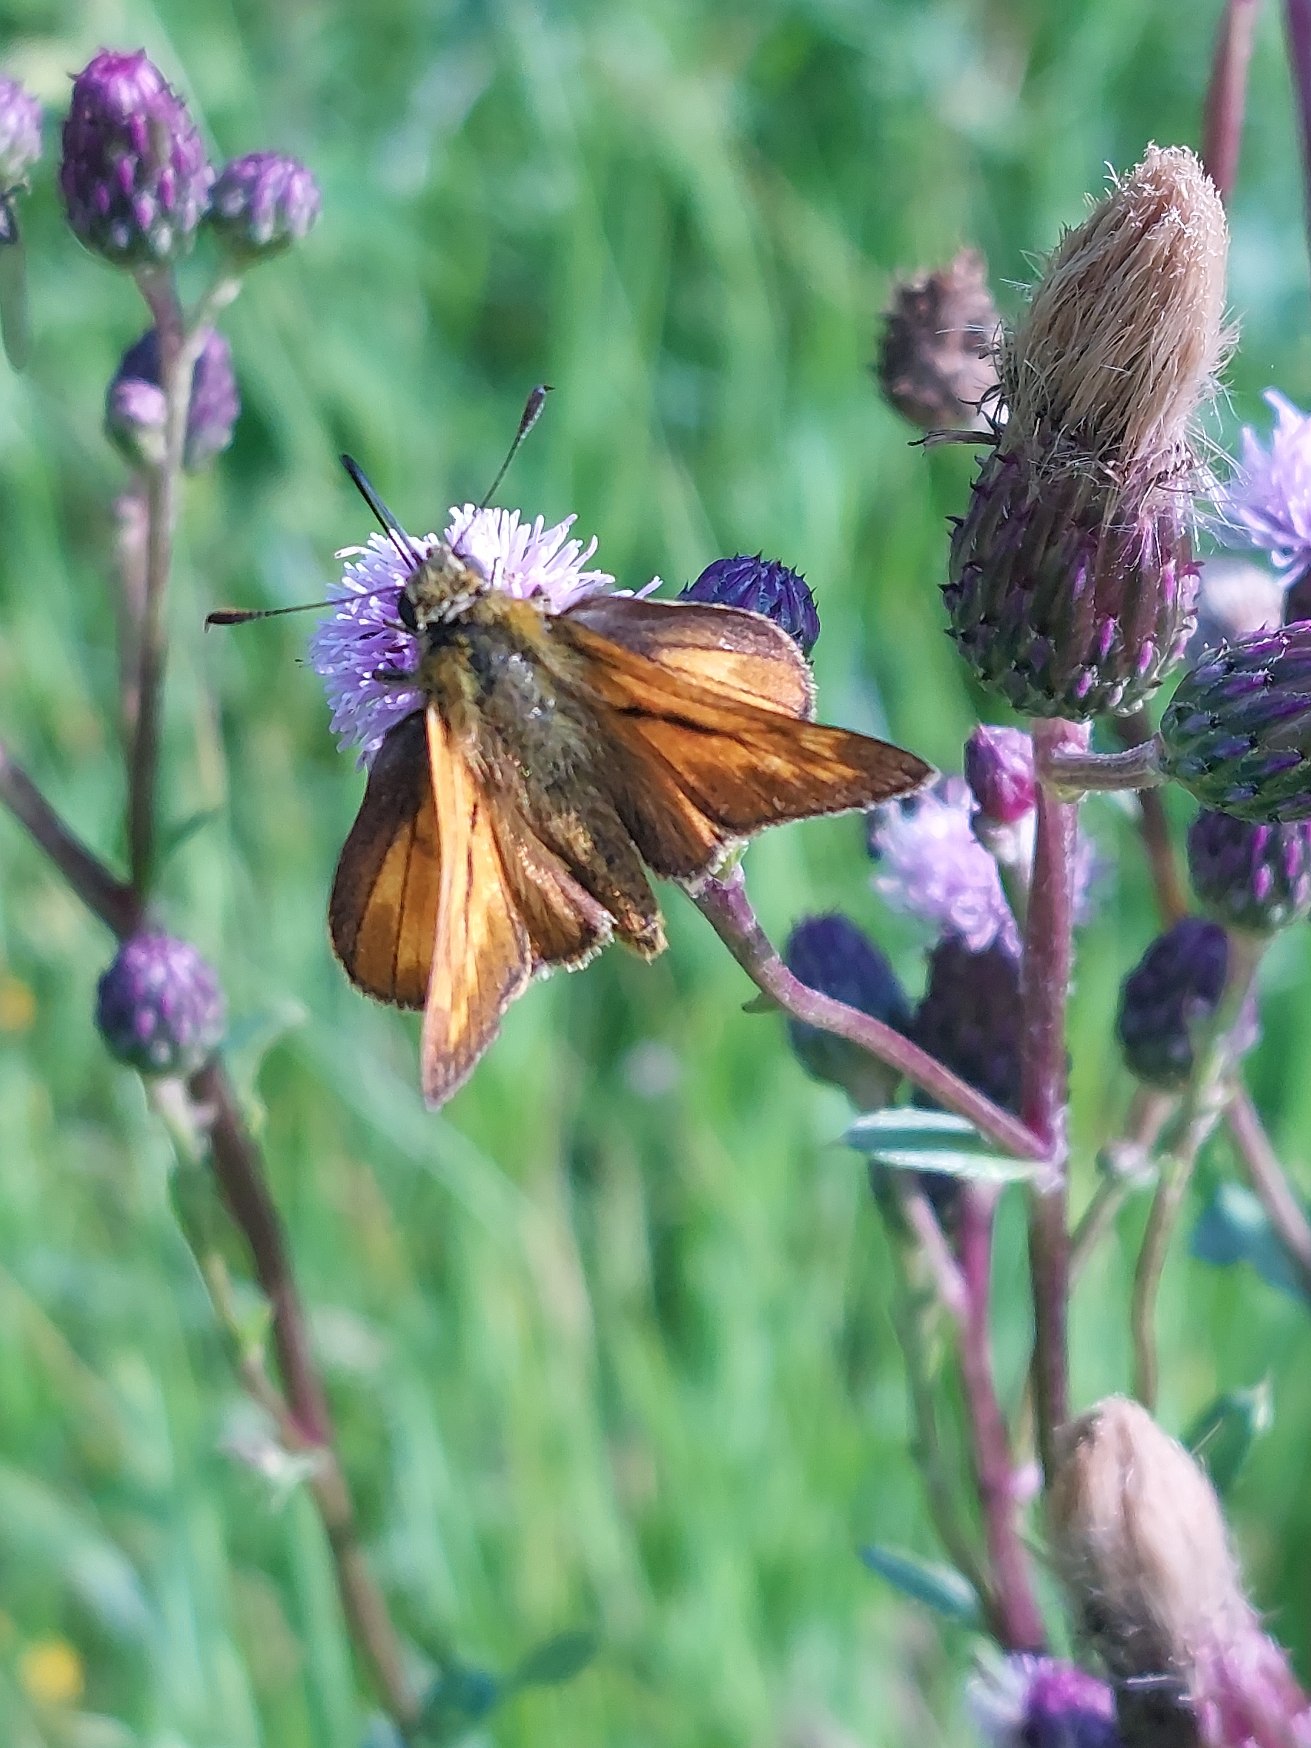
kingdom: Animalia
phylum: Arthropoda
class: Insecta
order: Lepidoptera
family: Hesperiidae
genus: Ochlodes
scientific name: Ochlodes venata
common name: Stor bredpande
